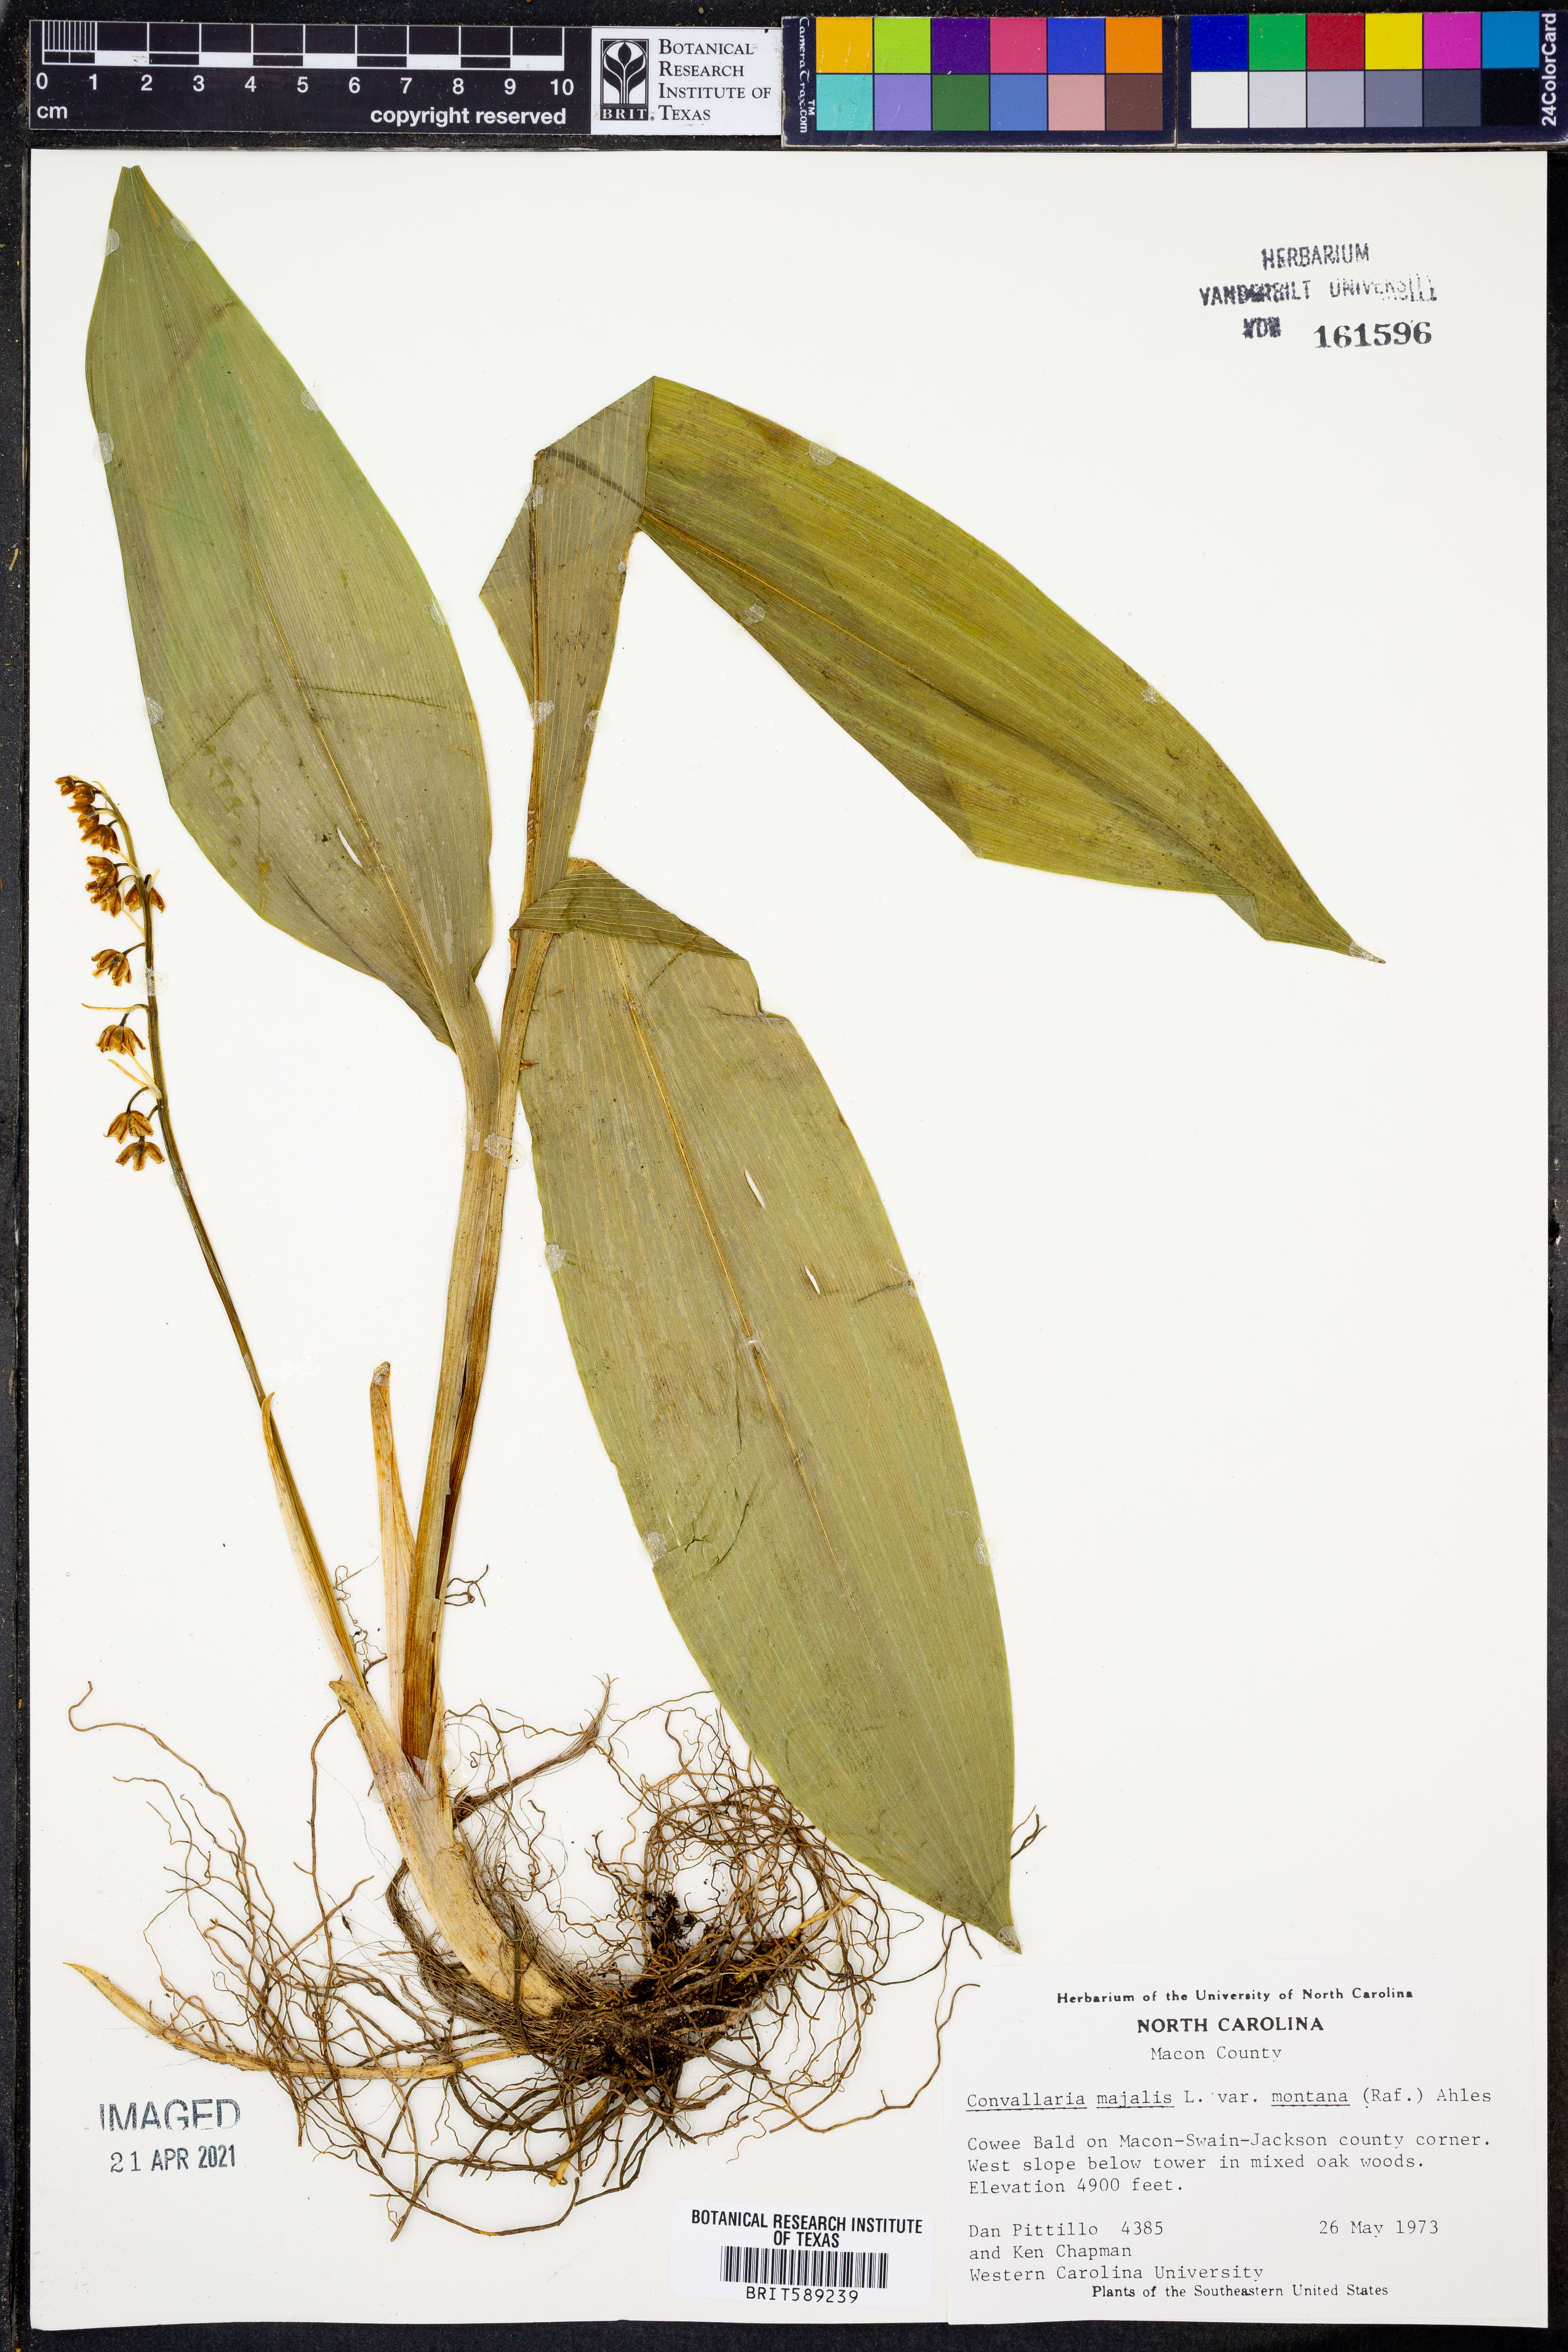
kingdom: Plantae
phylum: Tracheophyta
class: Liliopsida
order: Asparagales
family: Asparagaceae
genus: Convallaria
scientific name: Convallaria pseudomajalis
